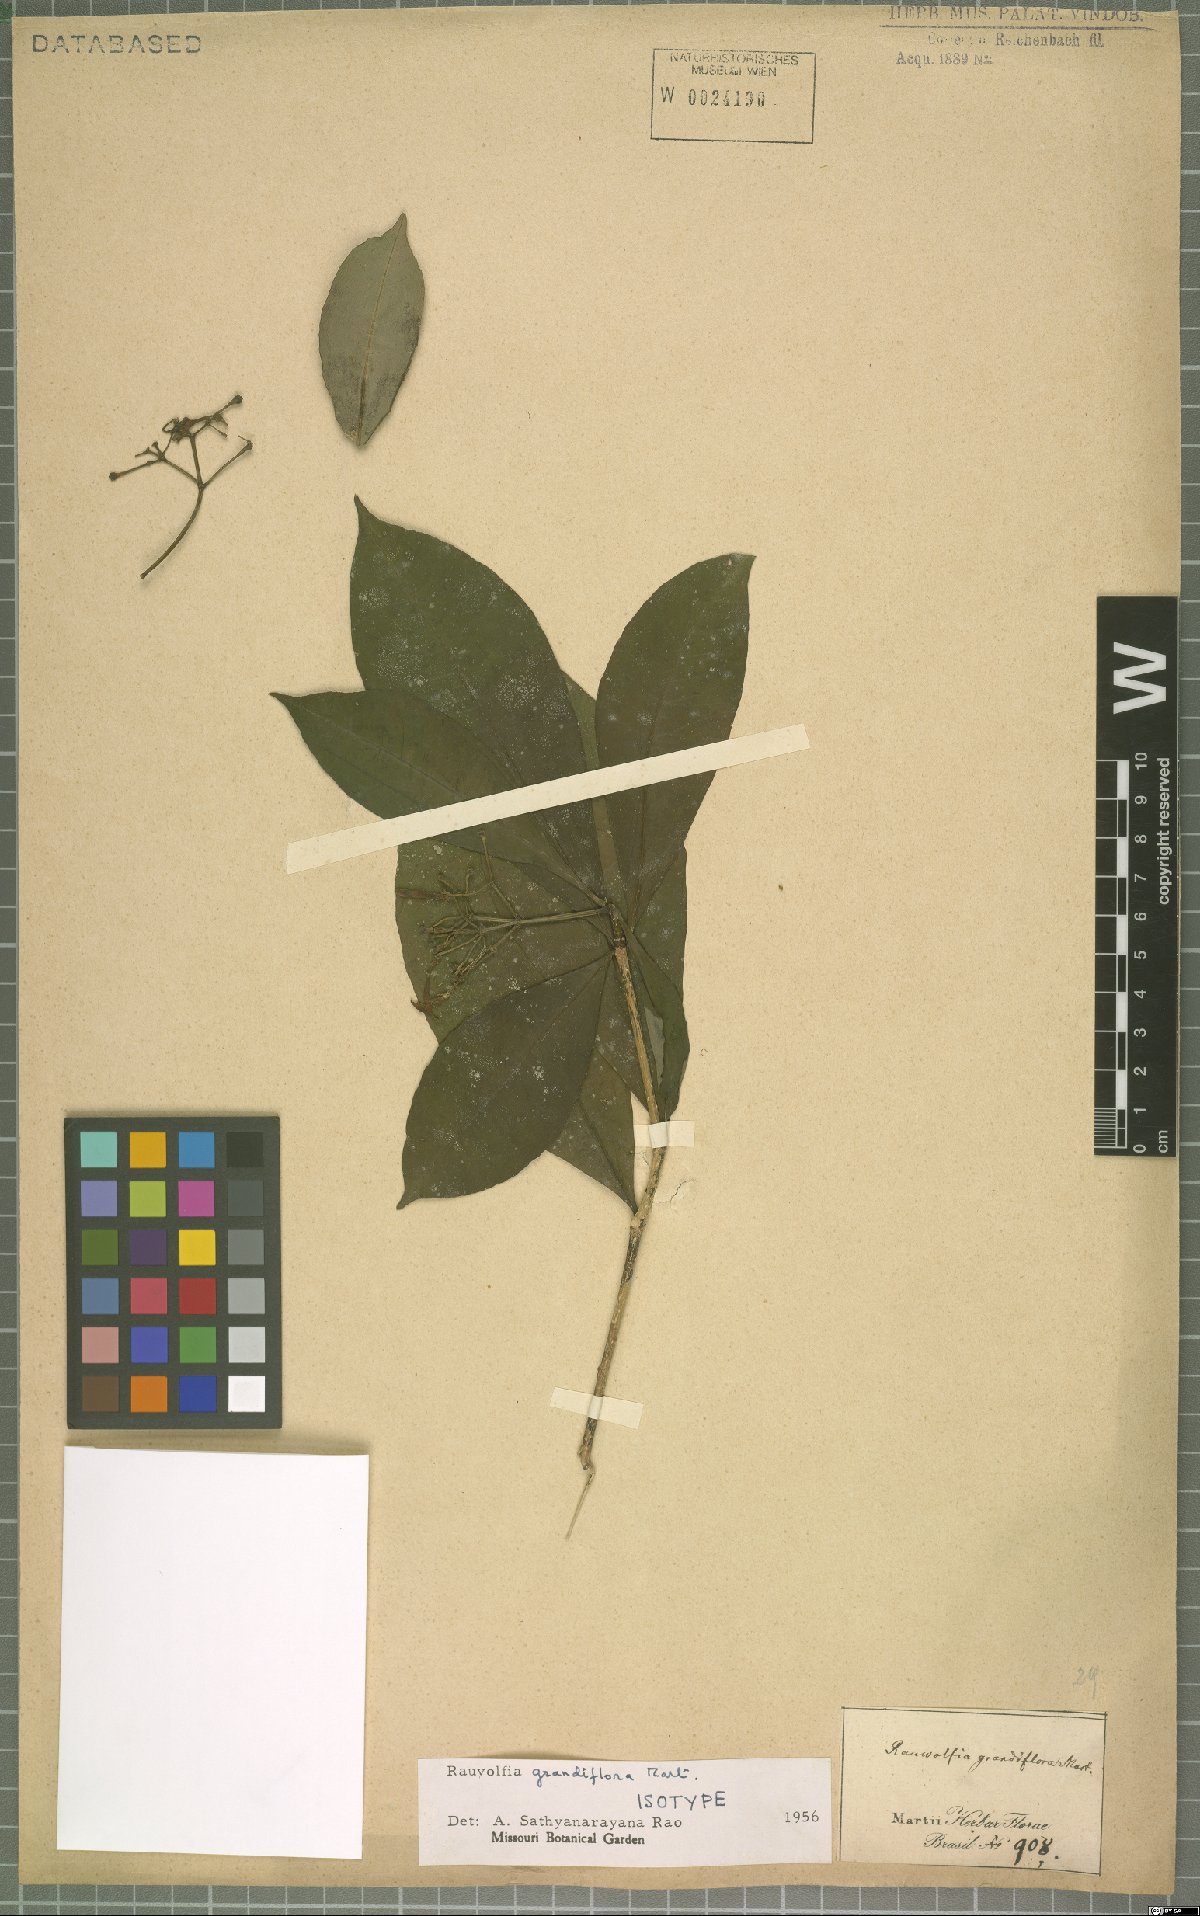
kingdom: Plantae
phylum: Tracheophyta
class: Magnoliopsida
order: Gentianales
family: Apocynaceae
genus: Rauvolfia
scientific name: Rauvolfia grandiflora
